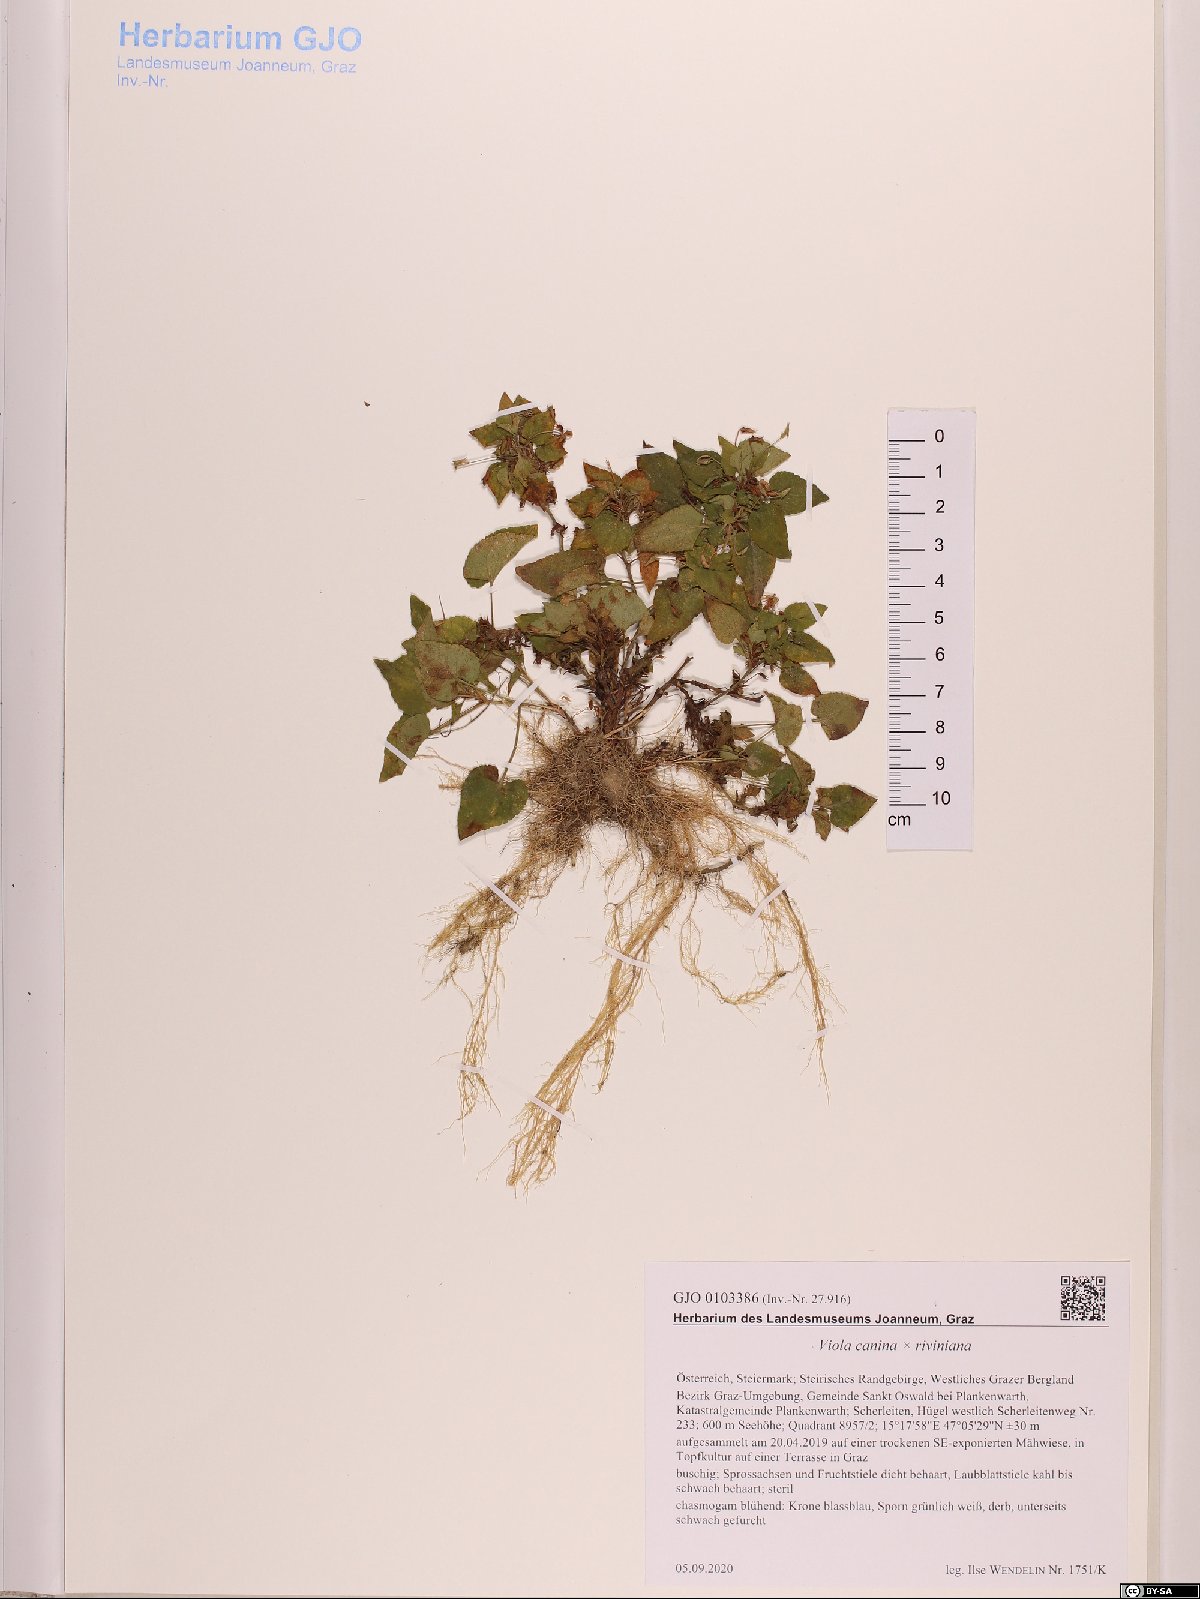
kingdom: Plantae
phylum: Tracheophyta
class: Magnoliopsida
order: Malpighiales
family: Violaceae
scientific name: Violaceae
